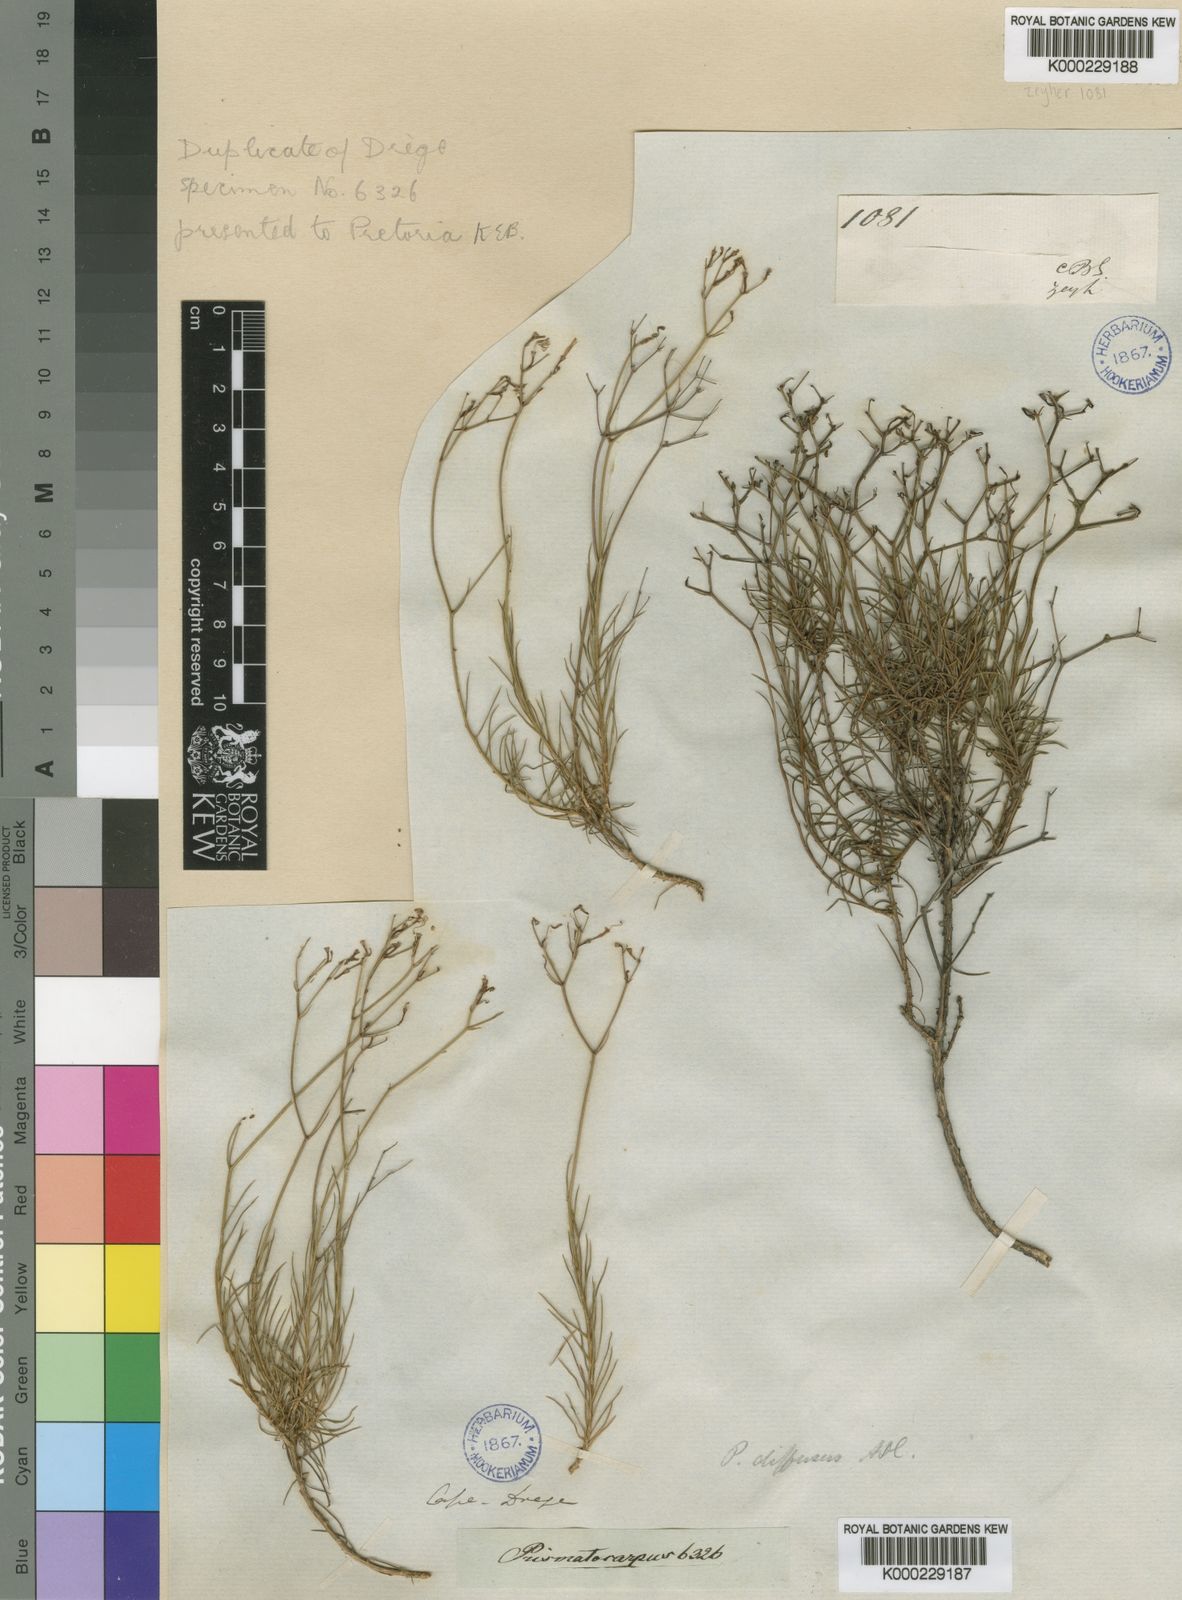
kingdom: Plantae
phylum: Tracheophyta
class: Magnoliopsida
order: Asterales
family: Campanulaceae
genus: Prismatocarpus
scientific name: Prismatocarpus diffusus
